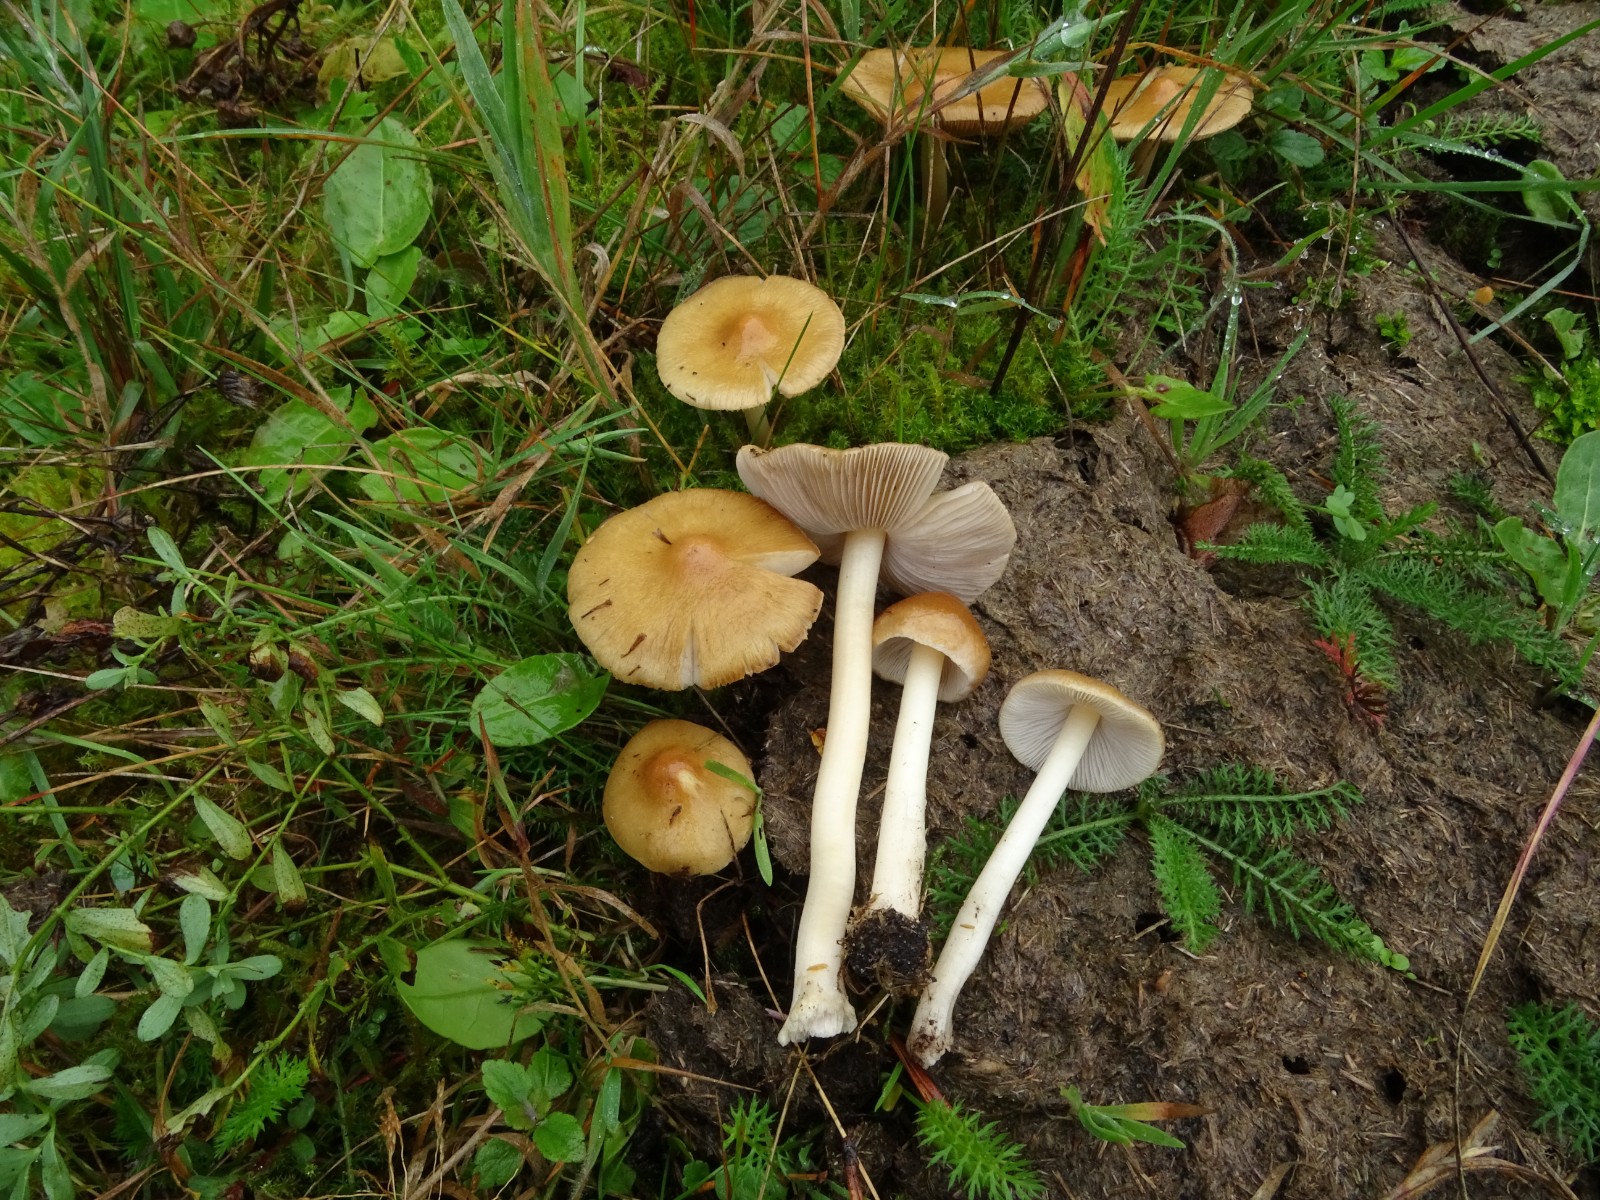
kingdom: Fungi
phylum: Basidiomycota
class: Agaricomycetes
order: Agaricales
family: Inocybaceae
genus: Inocybe
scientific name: Inocybe mixtilis
